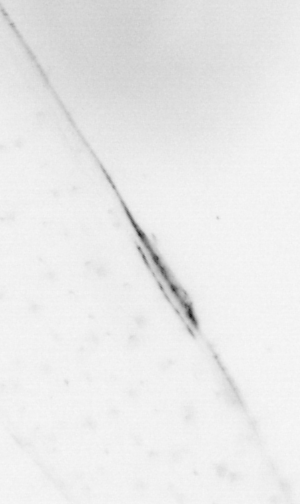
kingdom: Animalia
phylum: Chaetognatha
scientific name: Chaetognatha
